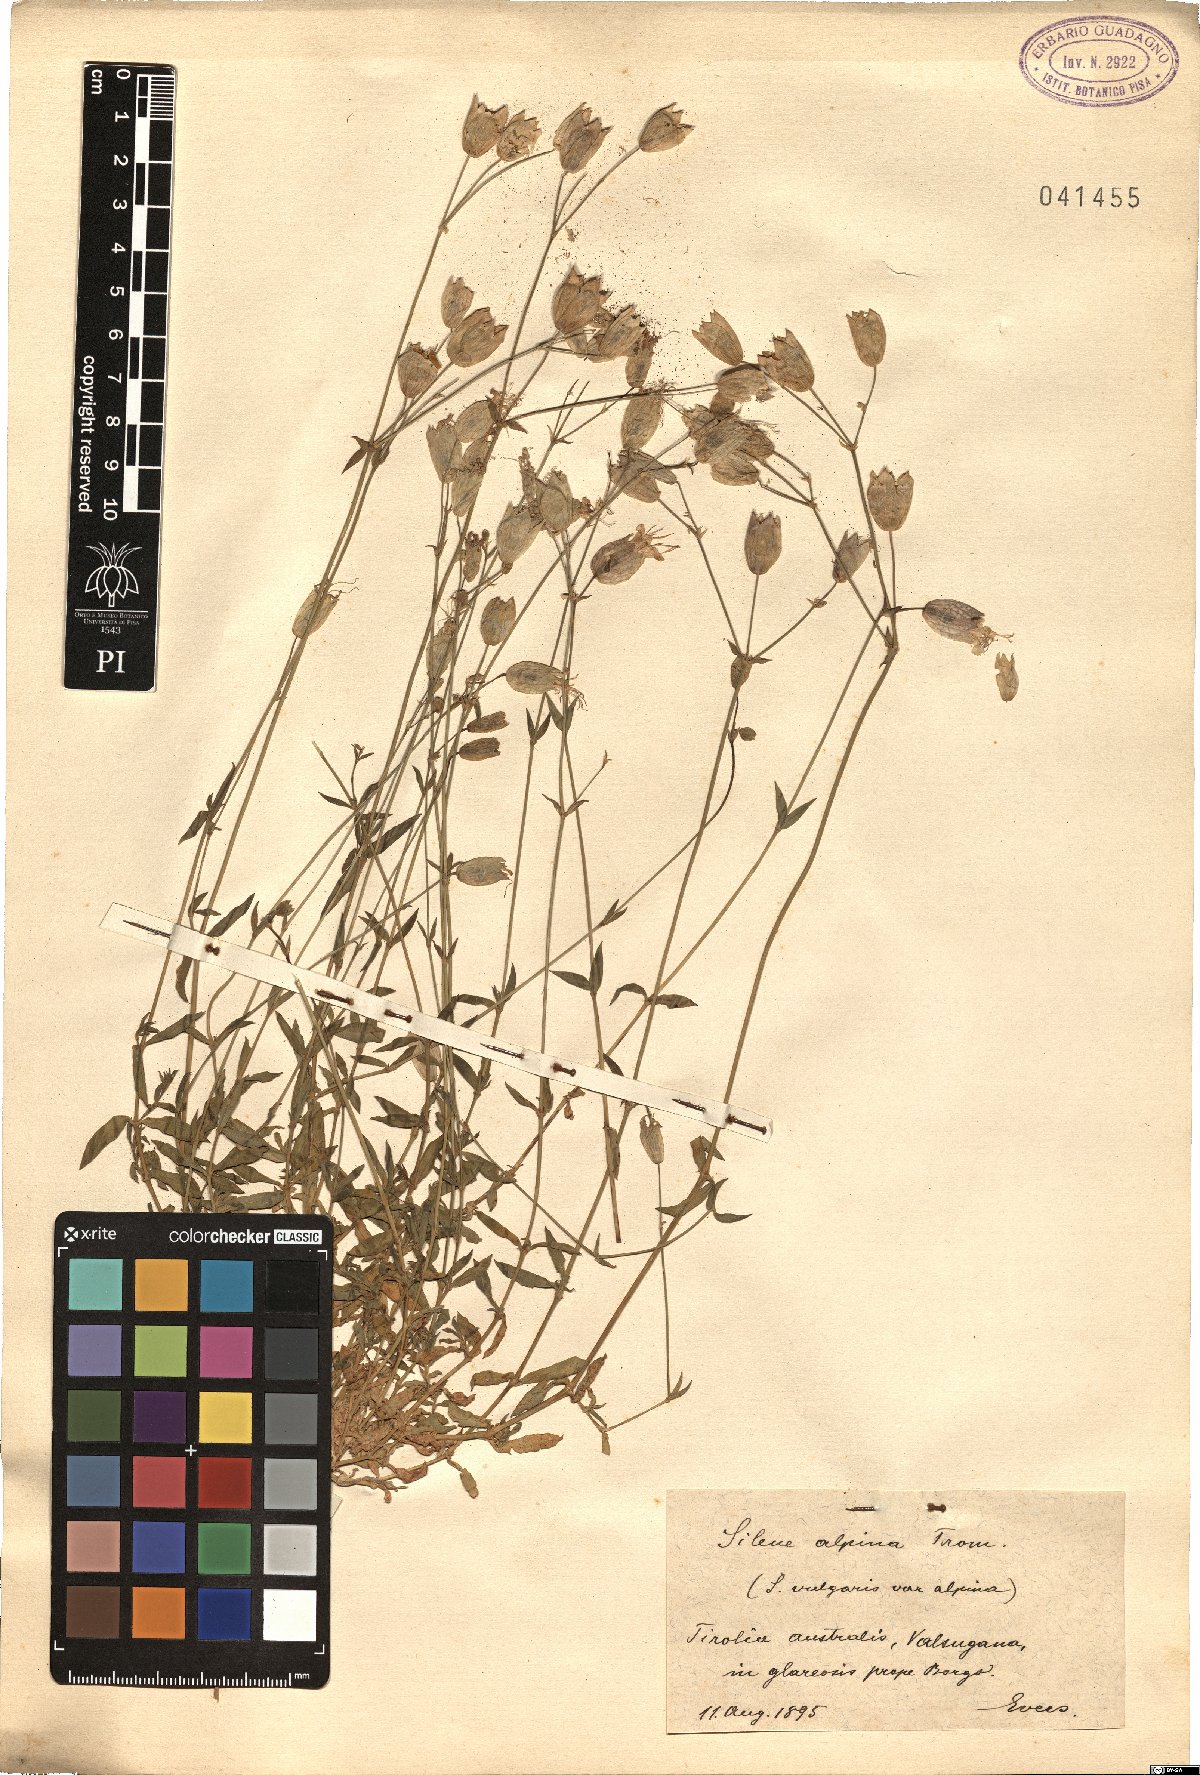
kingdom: Plantae
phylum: Tracheophyta
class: Magnoliopsida
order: Caryophyllales
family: Caryophyllaceae
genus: Silene
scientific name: Silene vulgaris
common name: Bladder campion
